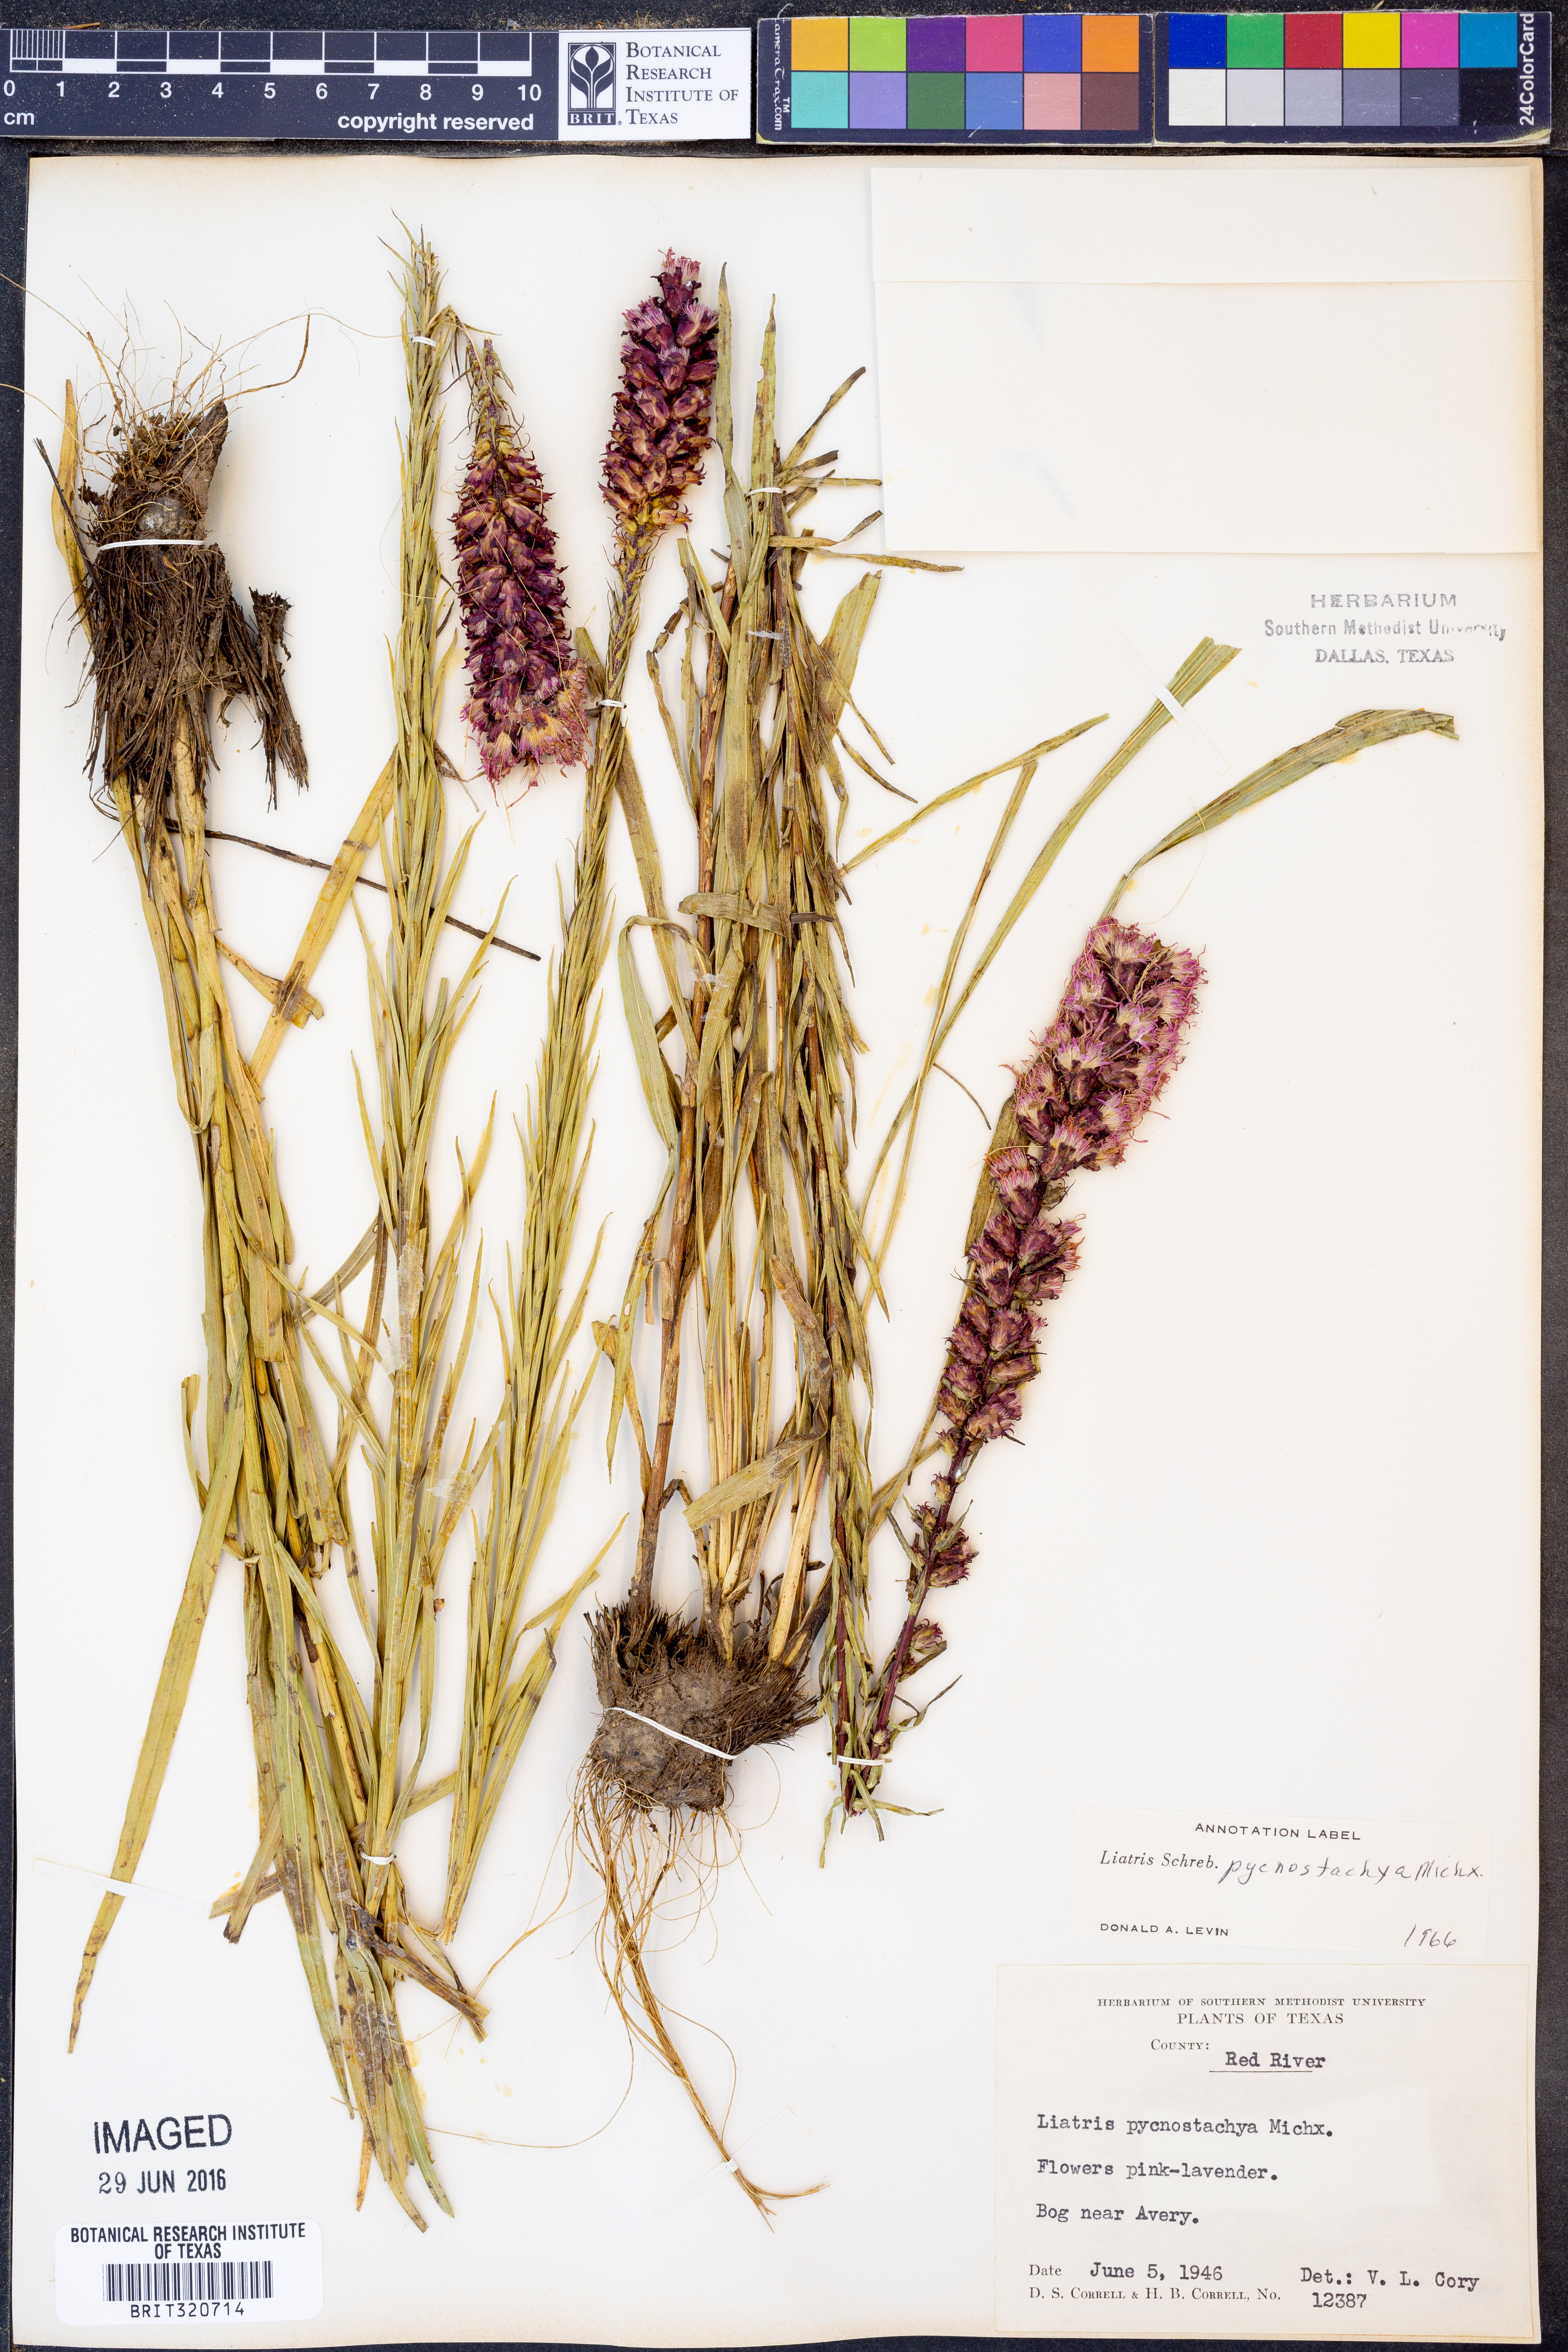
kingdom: Plantae
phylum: Tracheophyta
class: Magnoliopsida
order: Asterales
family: Asteraceae
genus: Liatris
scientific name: Liatris pycnostachya
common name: Cattail gayfeather
